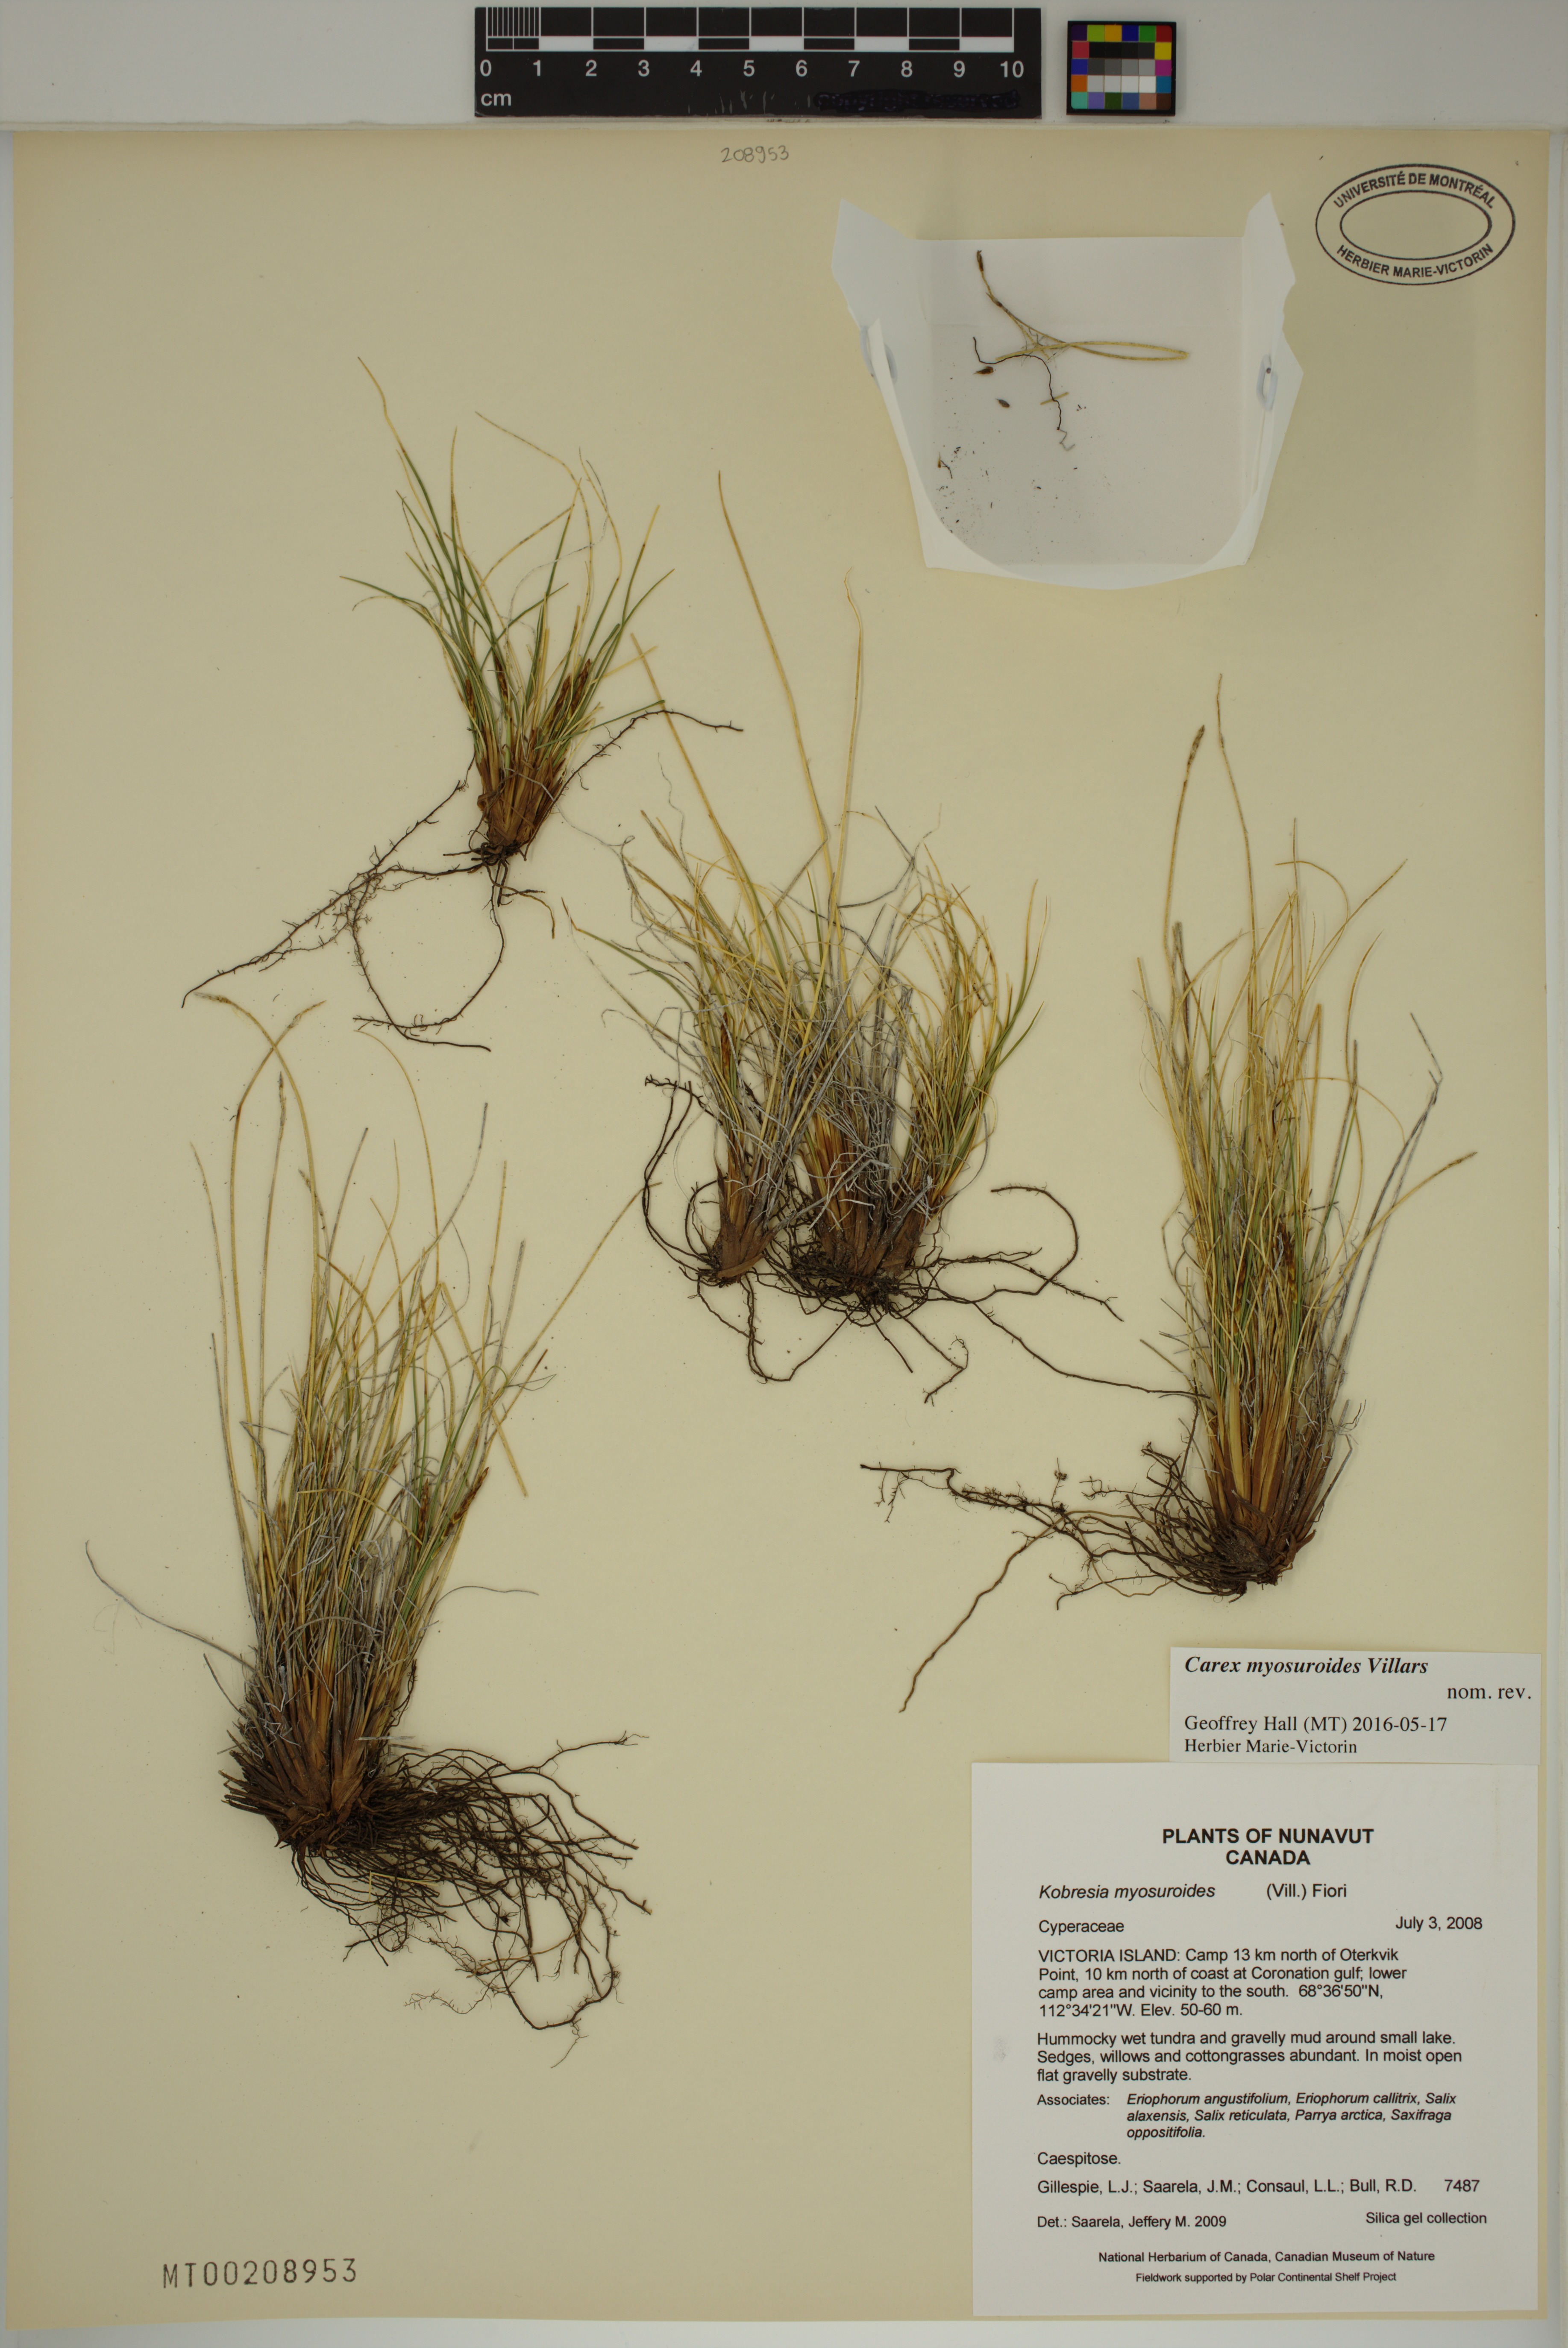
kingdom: Plantae
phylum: Tracheophyta
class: Liliopsida
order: Poales
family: Cyperaceae
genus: Carex
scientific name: Carex myosuroides
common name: Bellard's bog sedge
